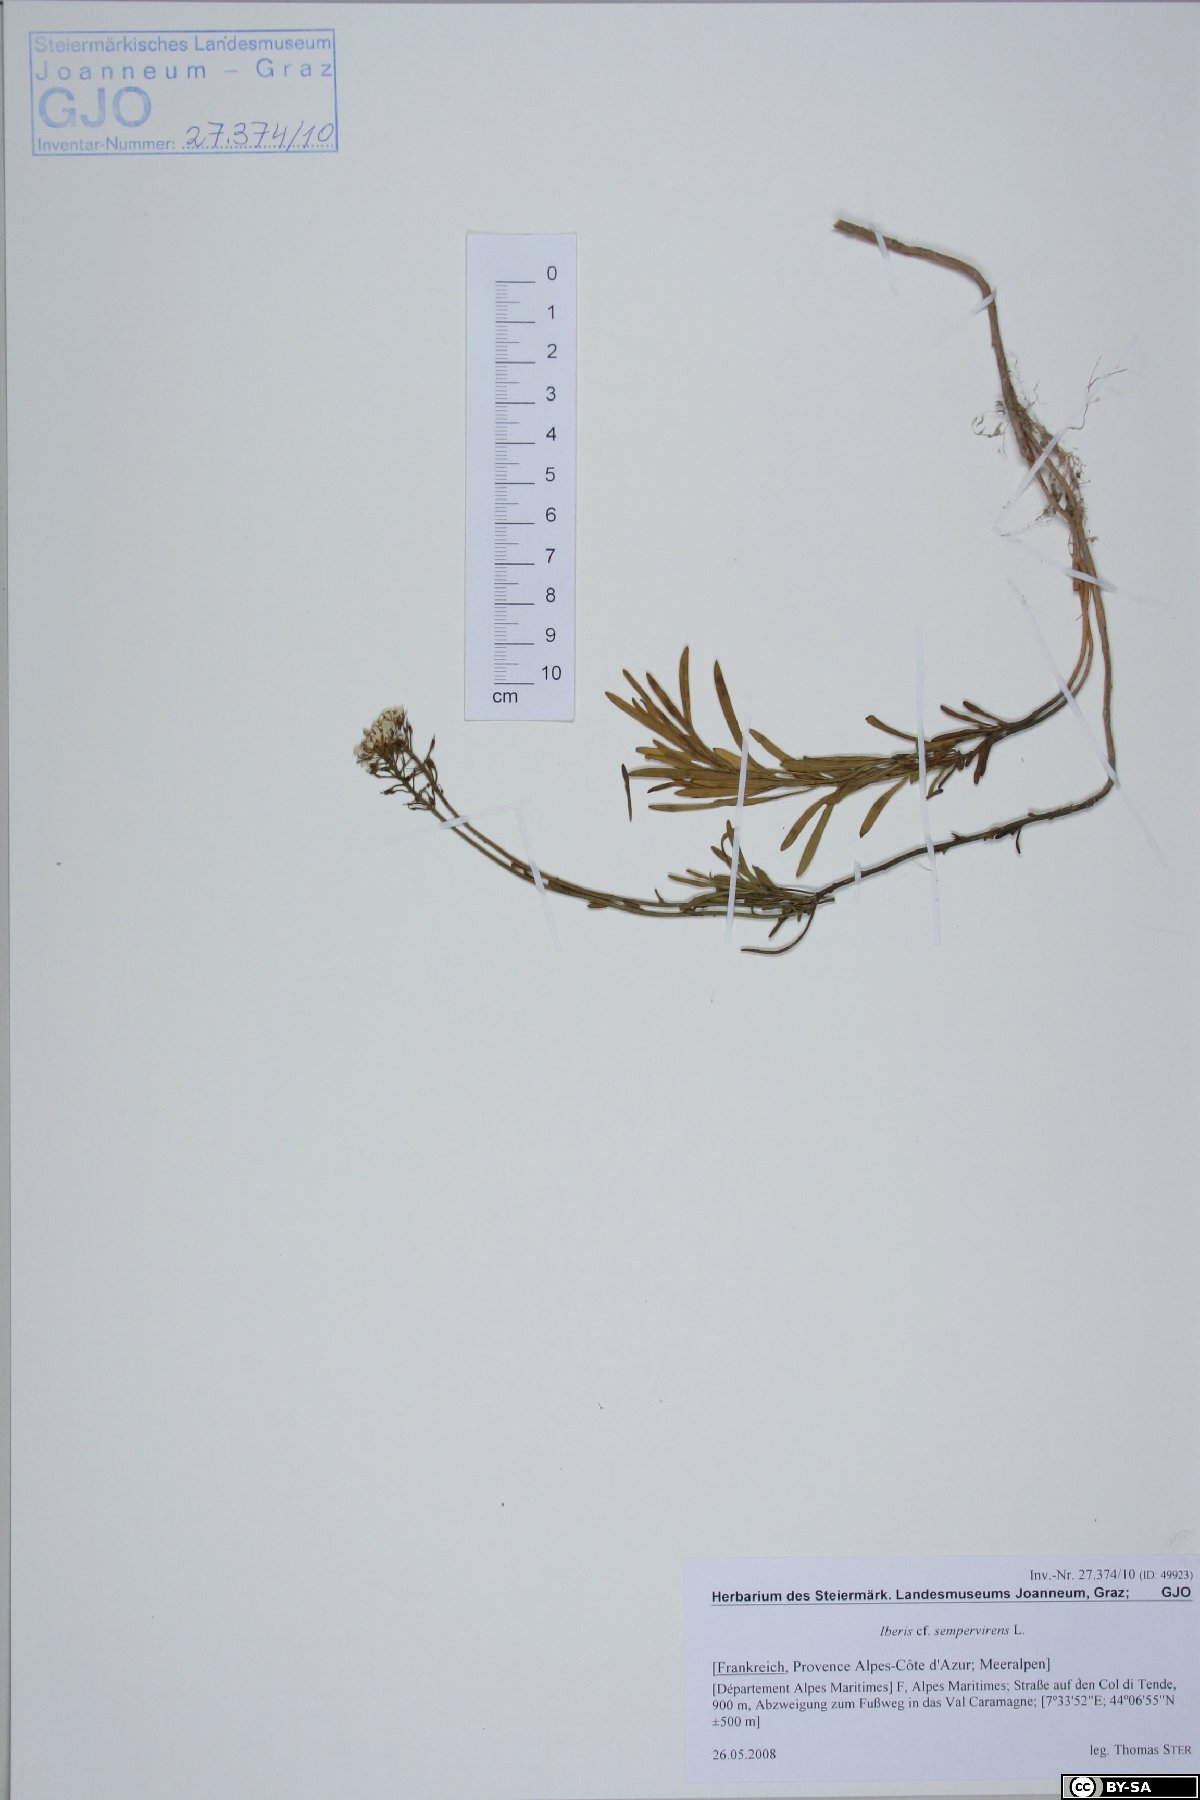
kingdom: Plantae
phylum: Tracheophyta
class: Magnoliopsida
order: Brassicales
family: Brassicaceae
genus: Iberis
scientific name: Iberis sempervirens
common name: Evergreen candytuft
